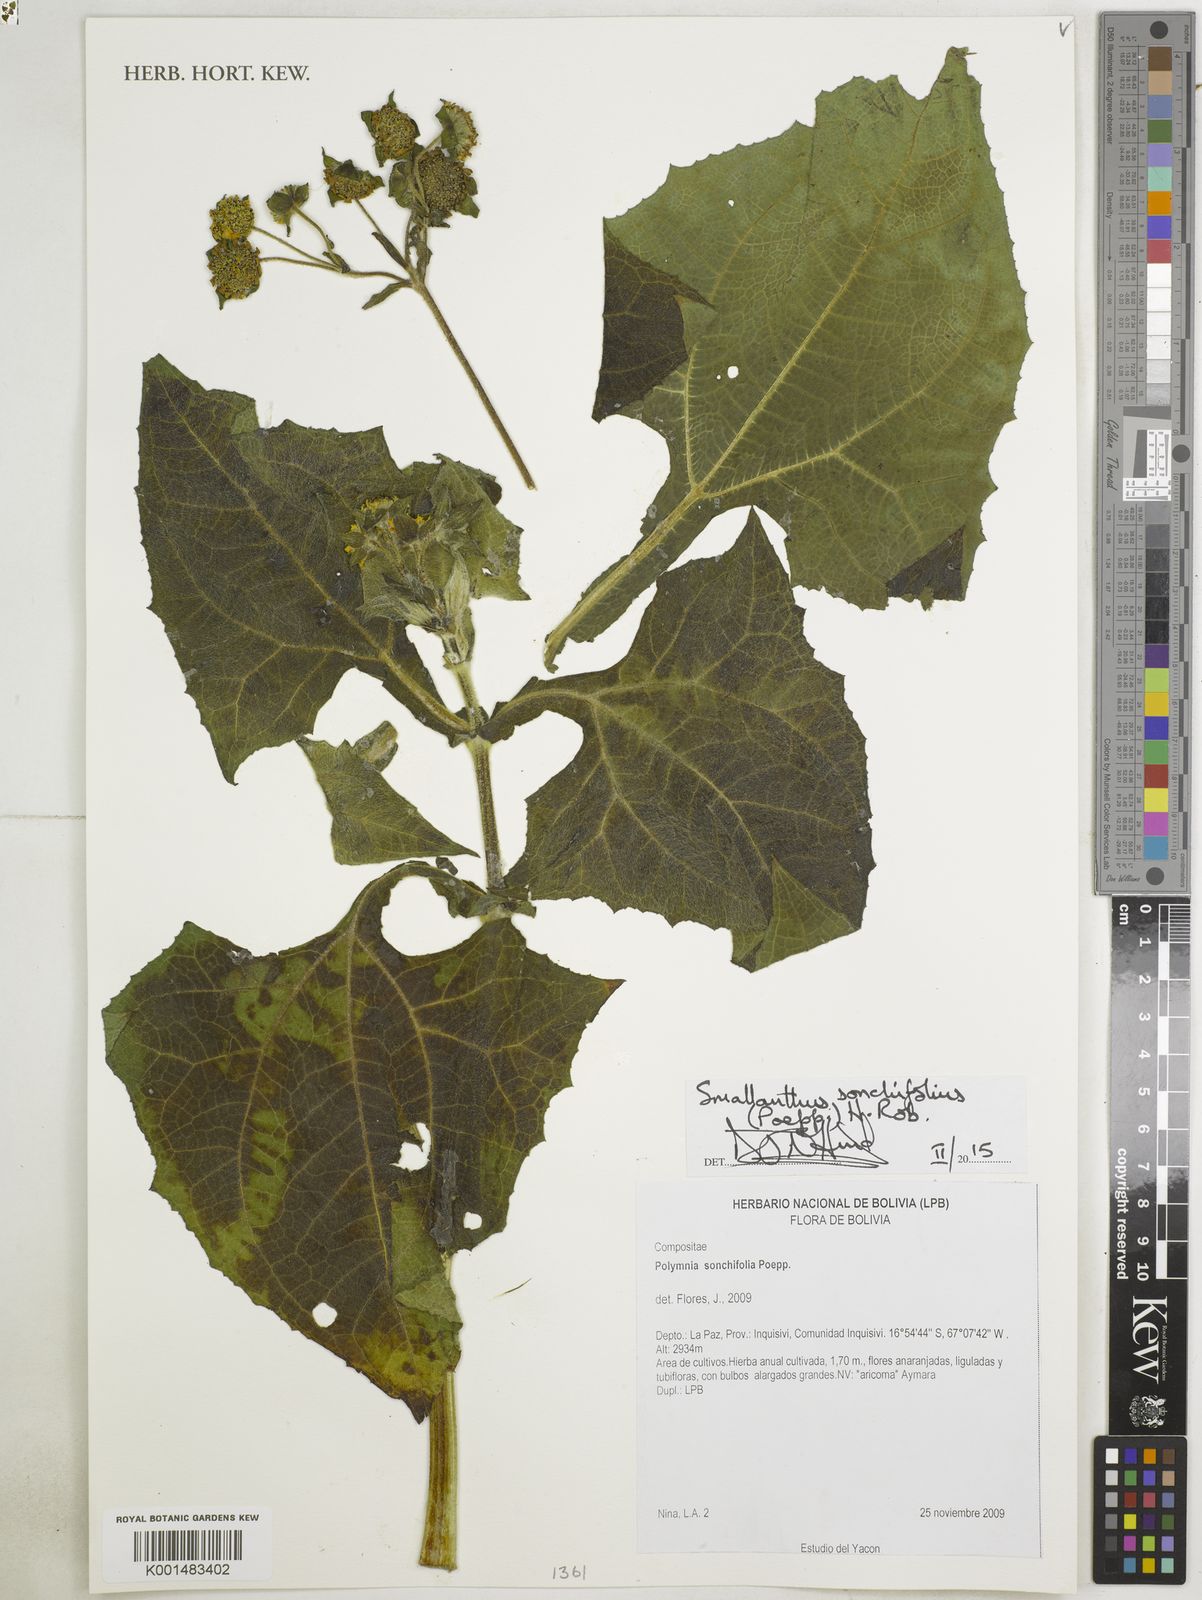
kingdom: Plantae
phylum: Tracheophyta
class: Magnoliopsida
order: Asterales
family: Asteraceae
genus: Smallanthus
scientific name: Smallanthus sonchifolius
